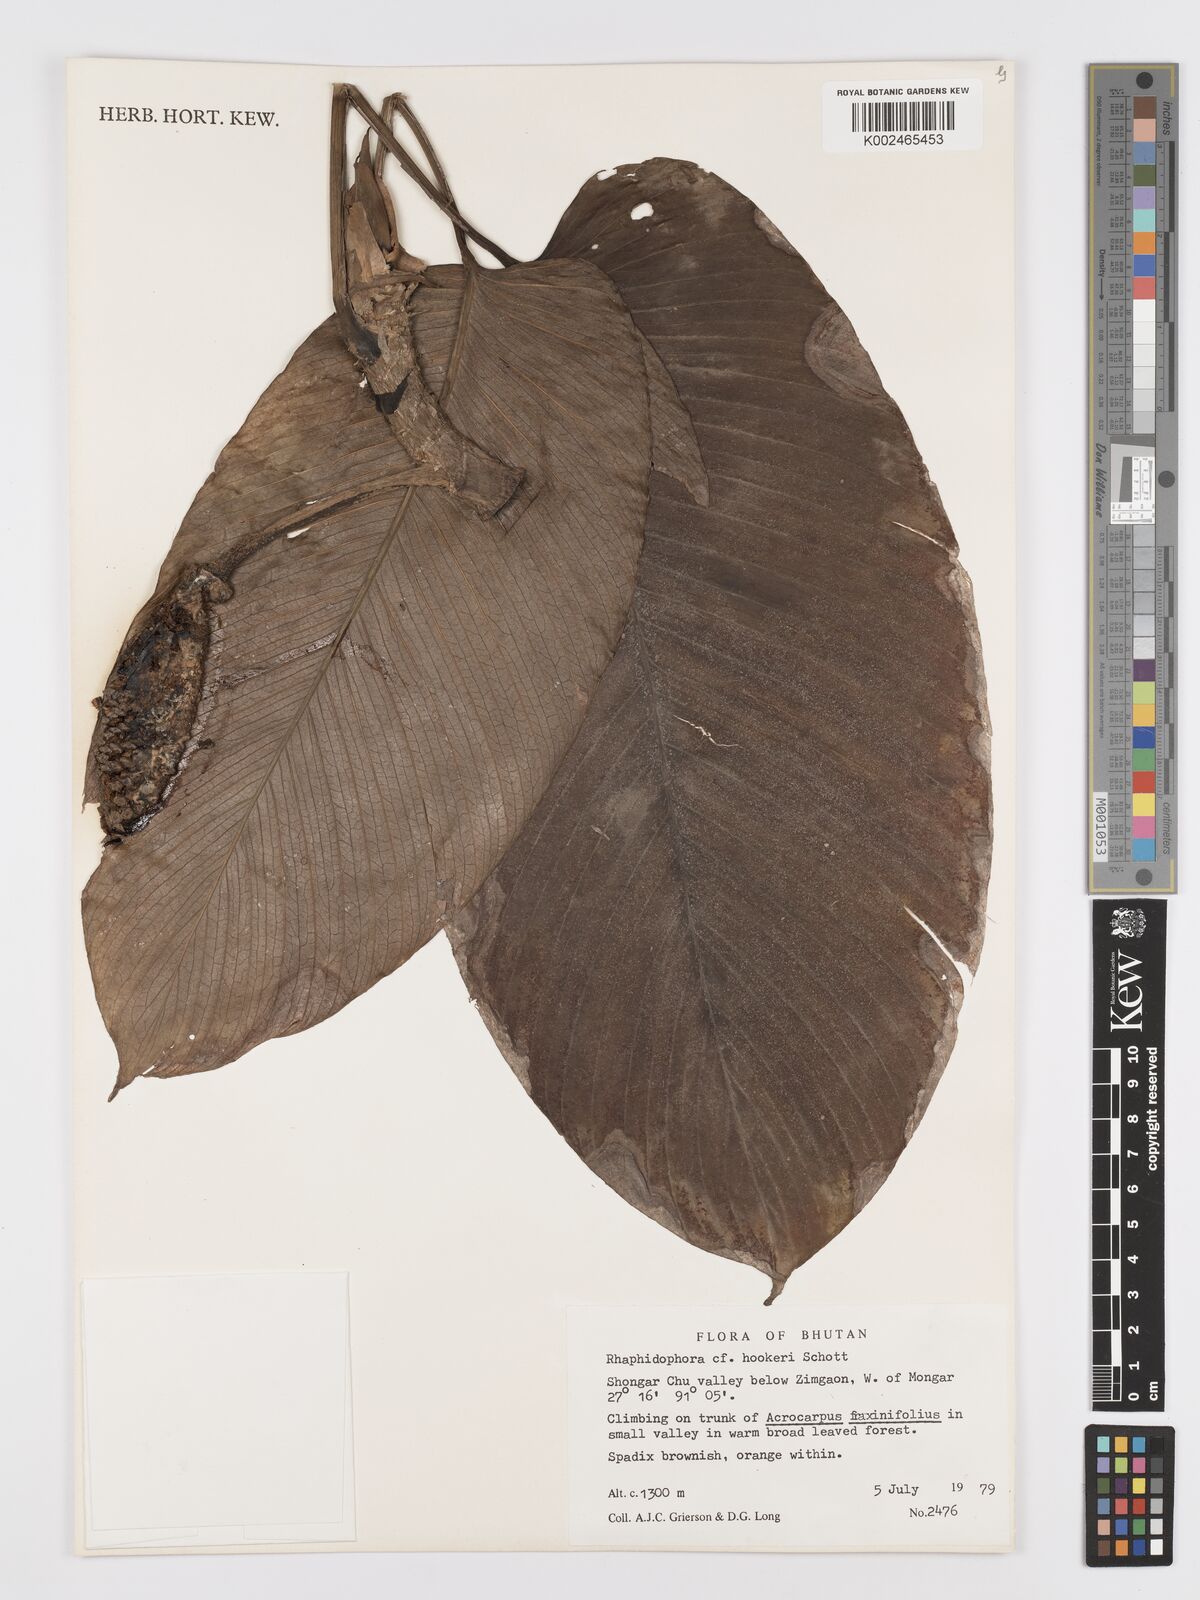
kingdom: Plantae
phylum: Tracheophyta
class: Liliopsida
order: Alismatales
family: Araceae
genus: Rhaphidophora
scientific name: Rhaphidophora hookeri
